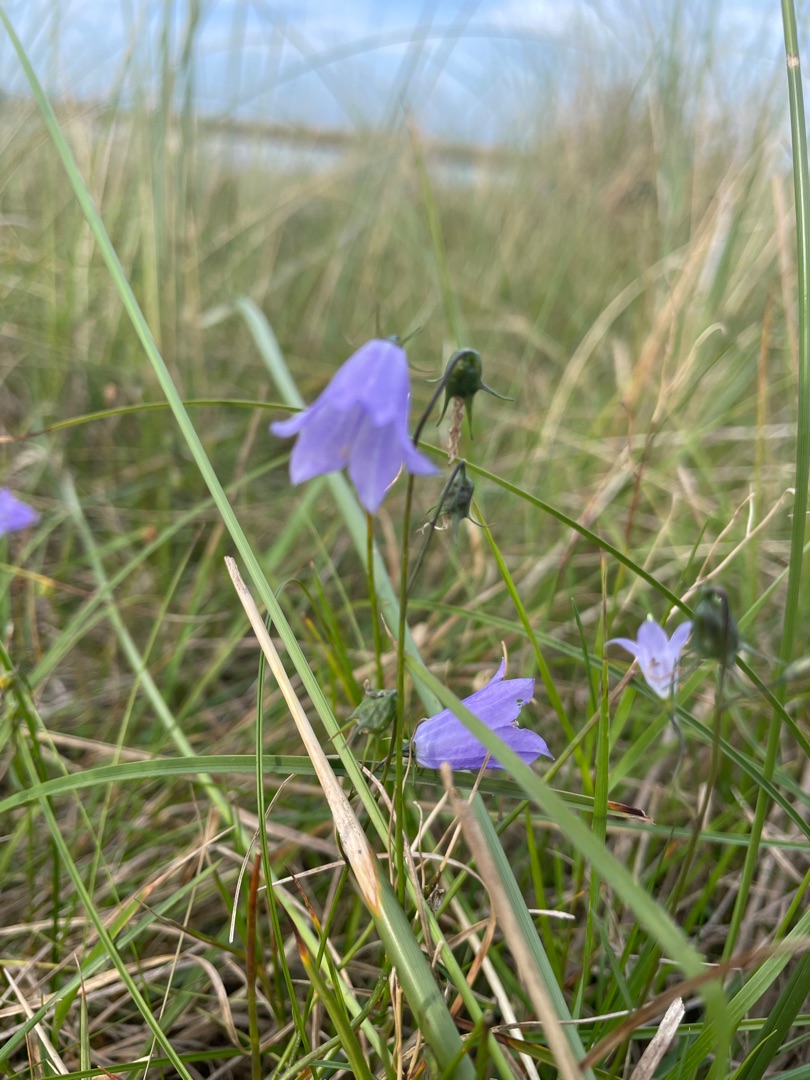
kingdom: Plantae
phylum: Tracheophyta
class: Magnoliopsida
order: Asterales
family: Campanulaceae
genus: Campanula
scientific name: Campanula rotundifolia
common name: Liden klokke
